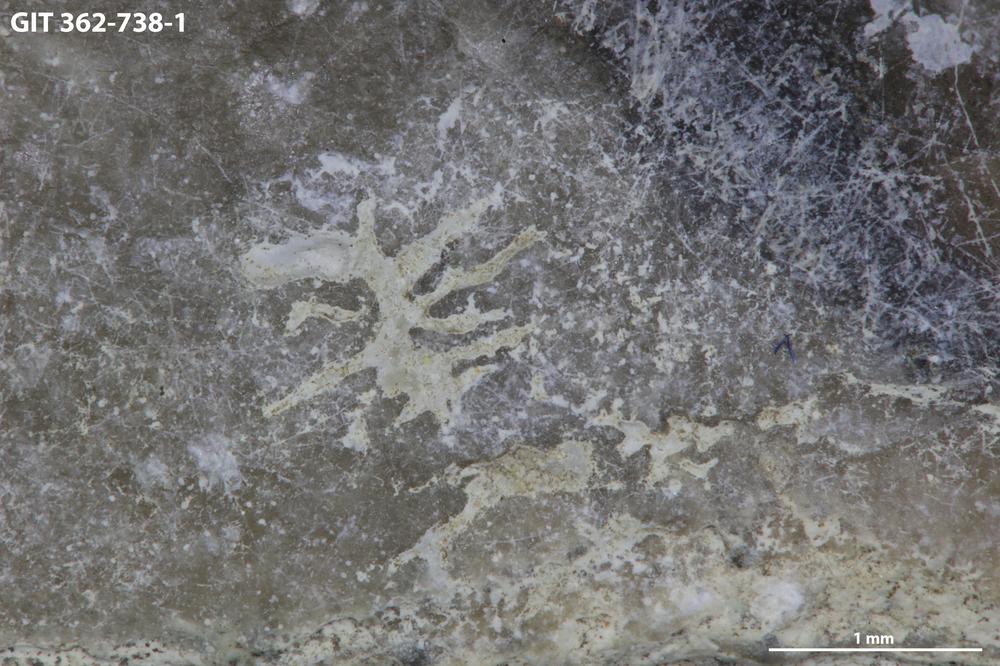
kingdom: Animalia
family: Dendrinidae
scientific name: Dendrinidae
